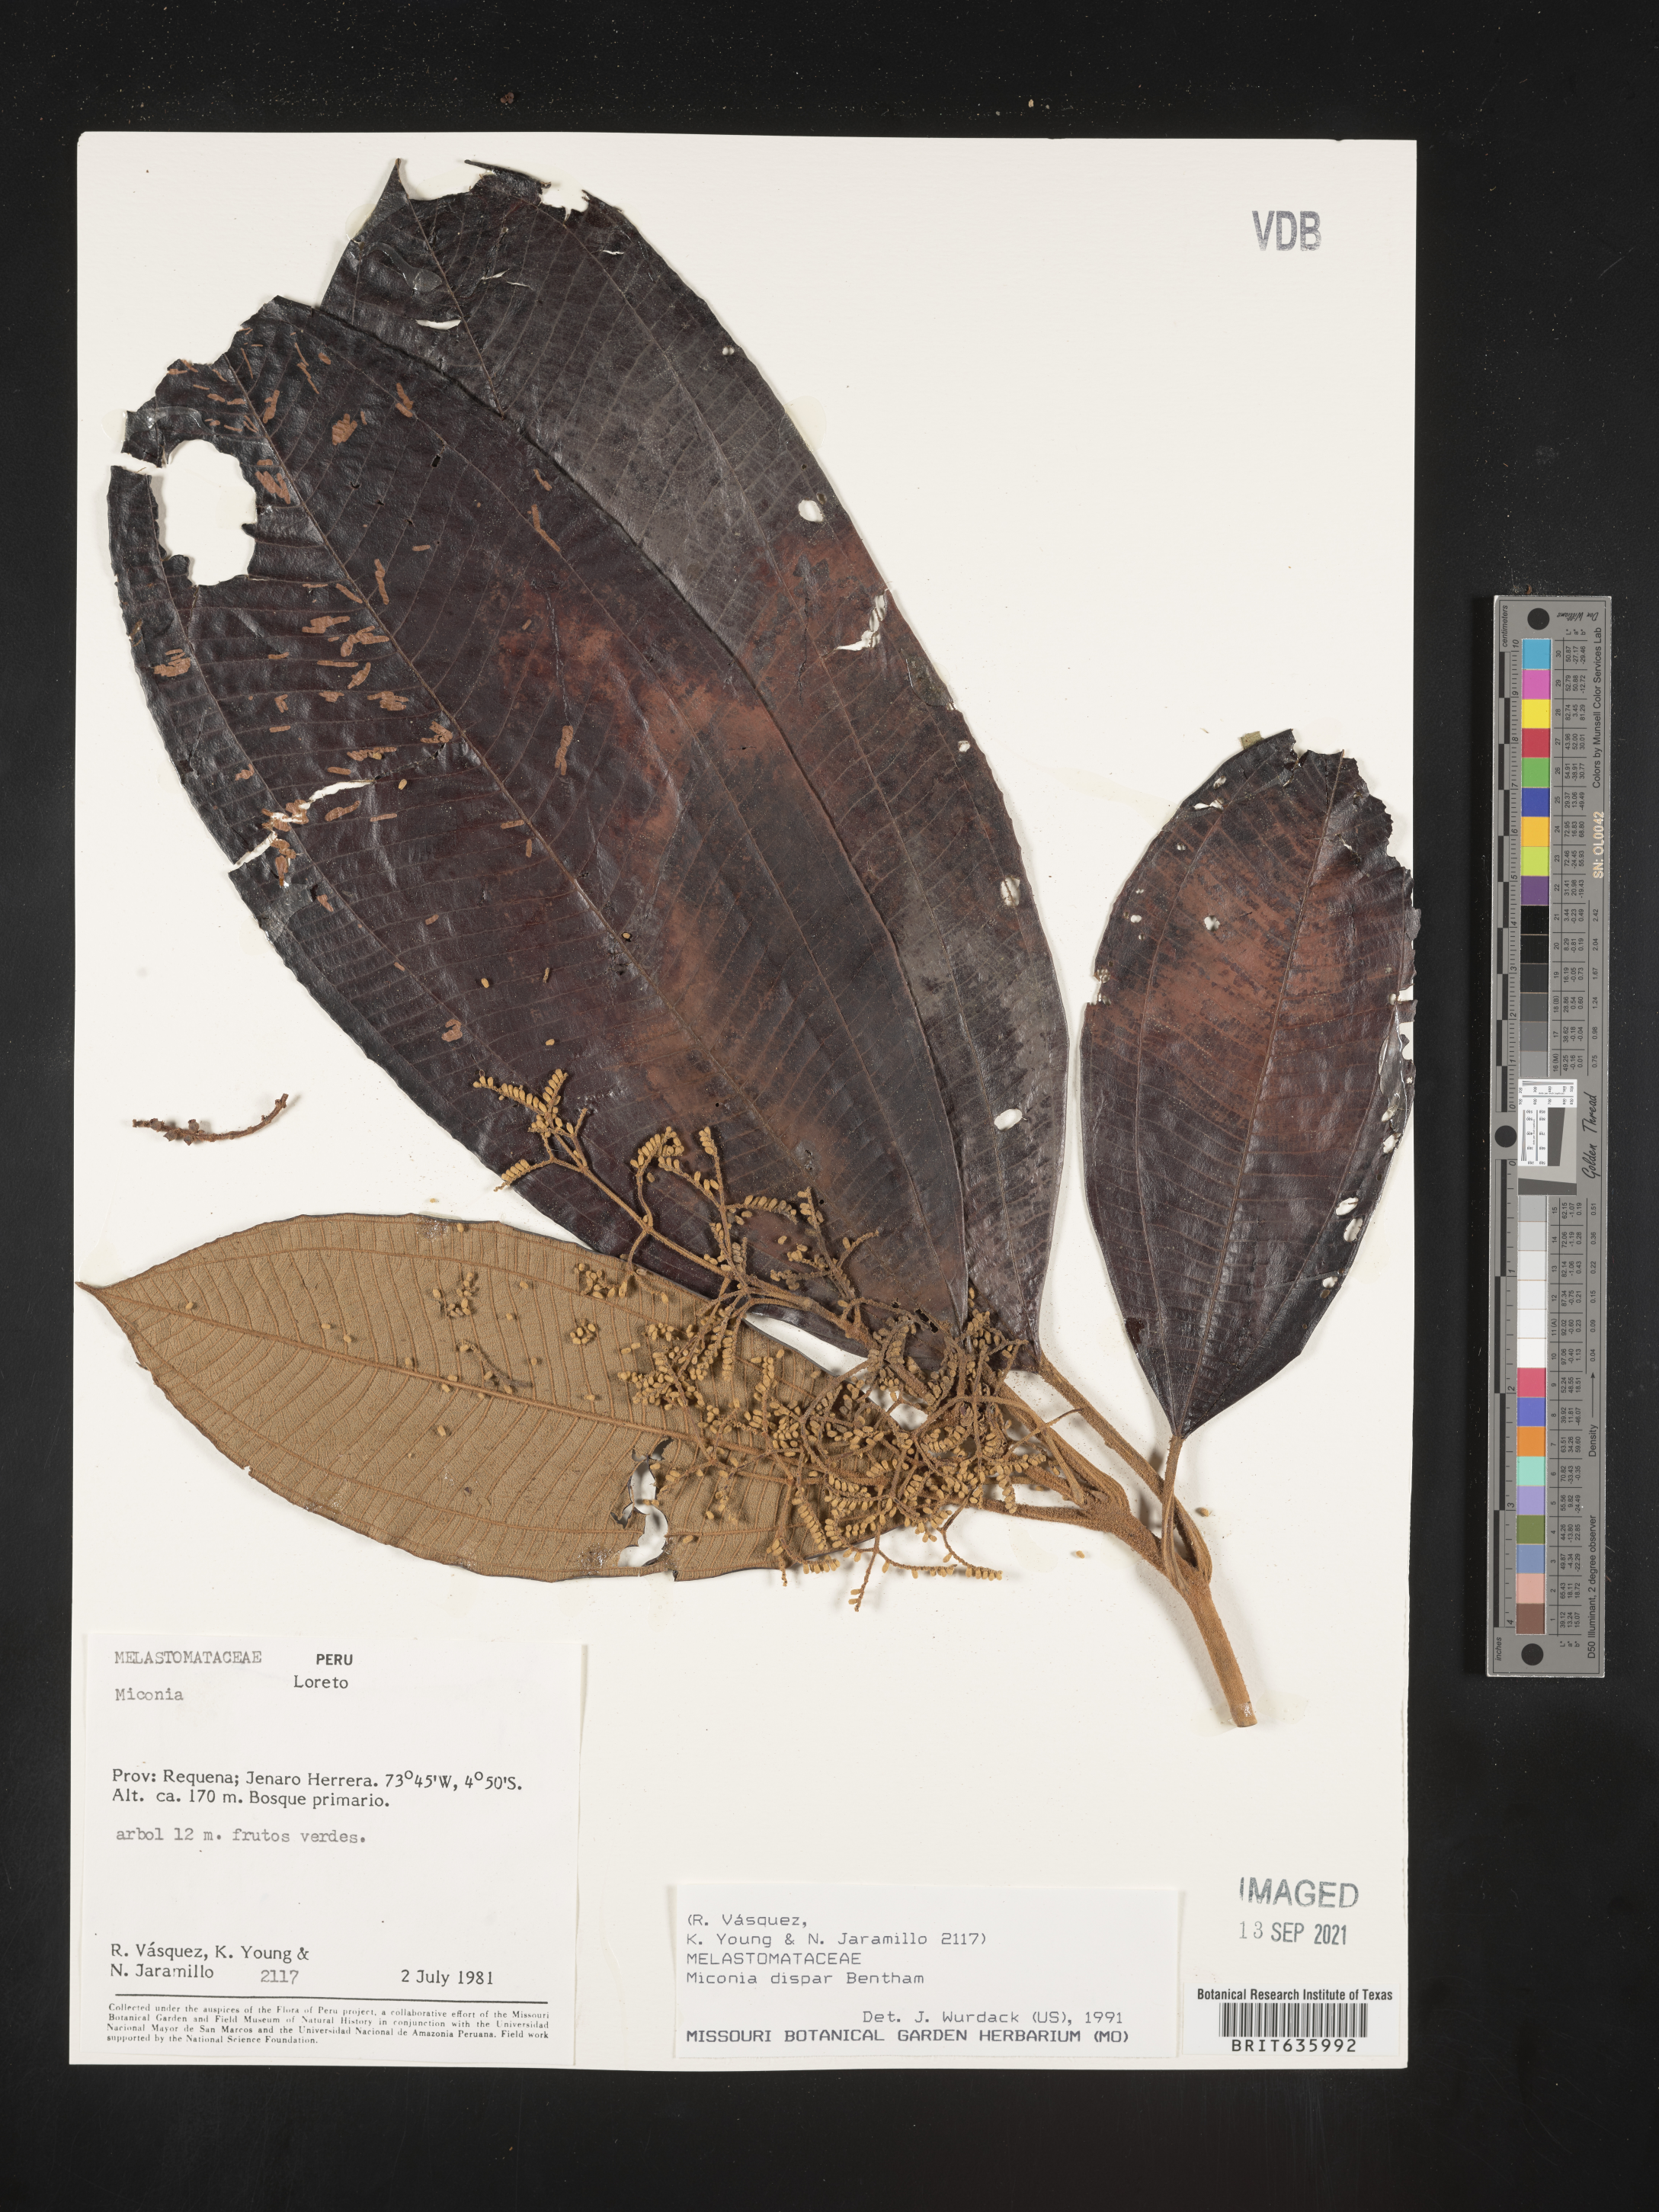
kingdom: Plantae
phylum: Tracheophyta
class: Magnoliopsida
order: Myrtales
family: Melastomataceae
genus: Miconia
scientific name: Miconia
